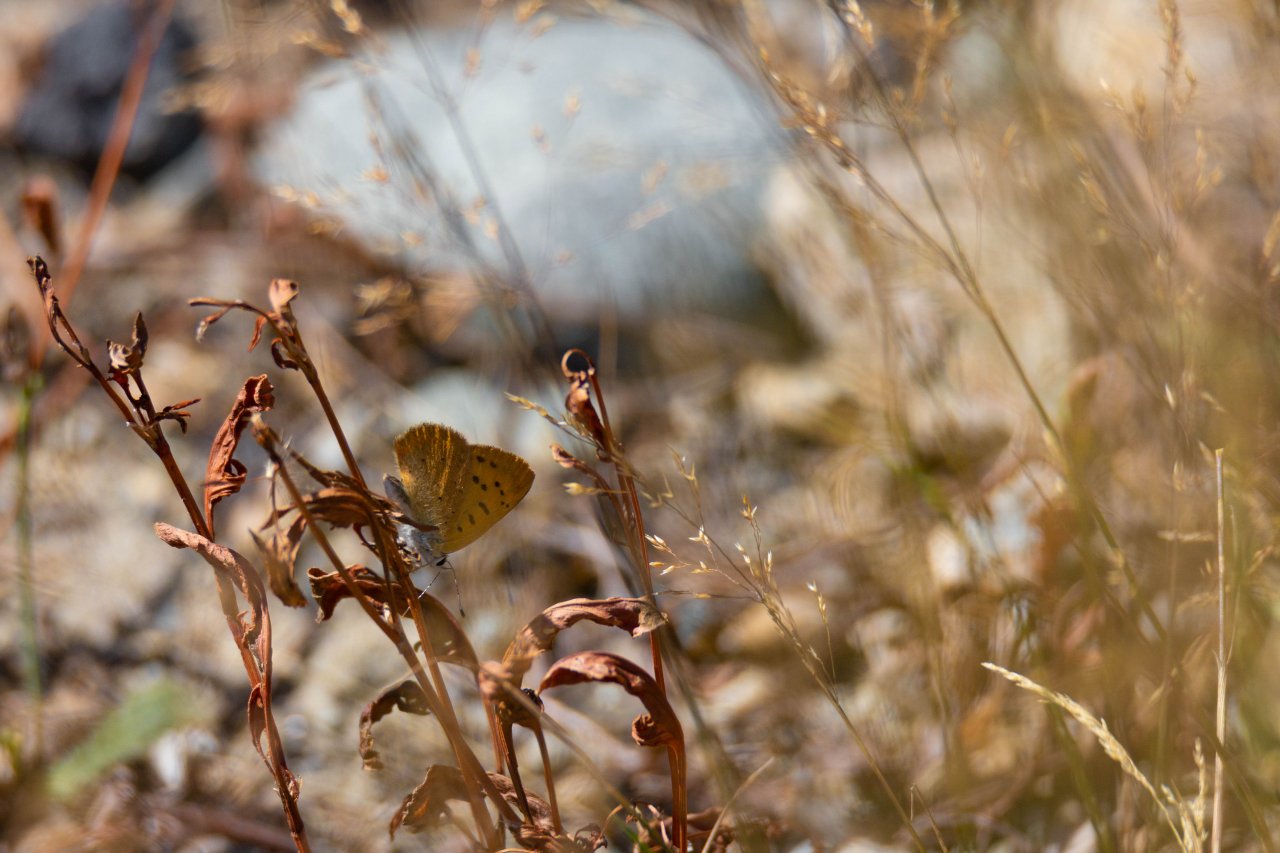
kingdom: Animalia
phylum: Arthropoda
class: Insecta
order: Lepidoptera
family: Sesiidae
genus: Sesia
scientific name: Sesia Lycaena helloides
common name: Purplish Copper
